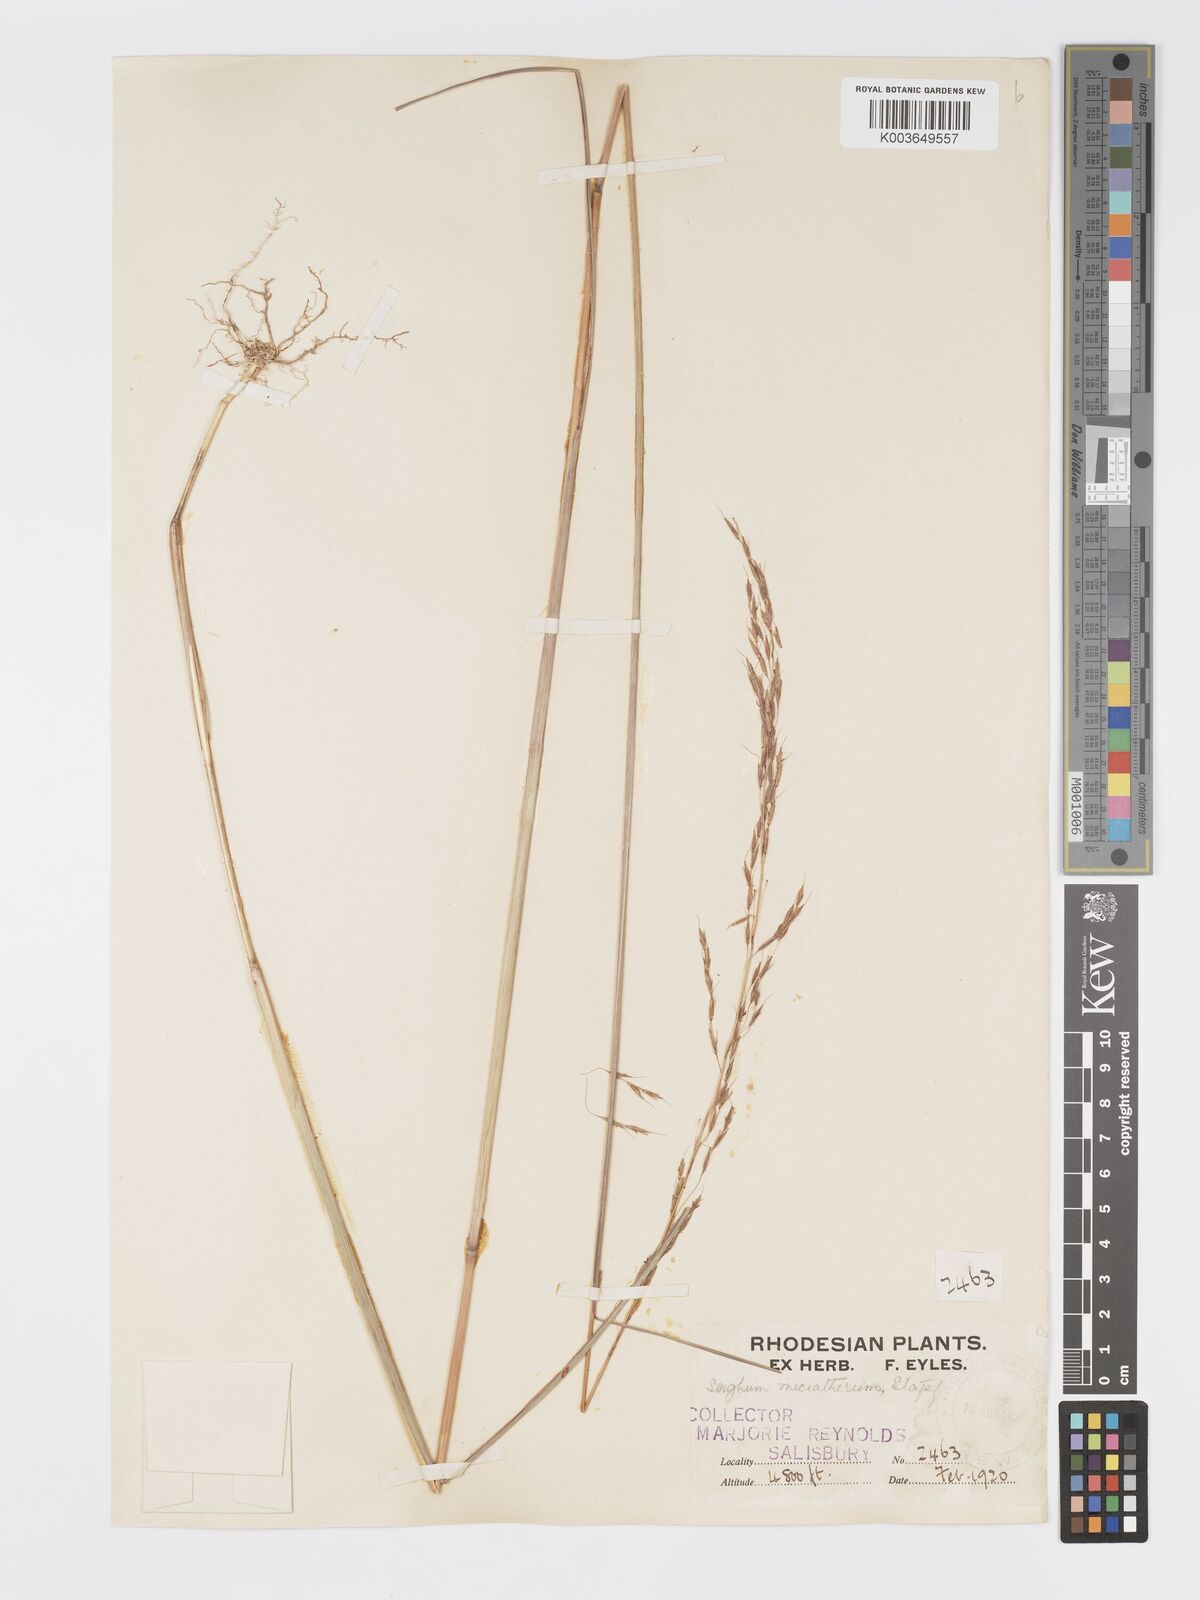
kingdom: Plantae
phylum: Tracheophyta
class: Liliopsida
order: Poales
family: Poaceae
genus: Sorghastrum
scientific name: Sorghastrum nudipes
